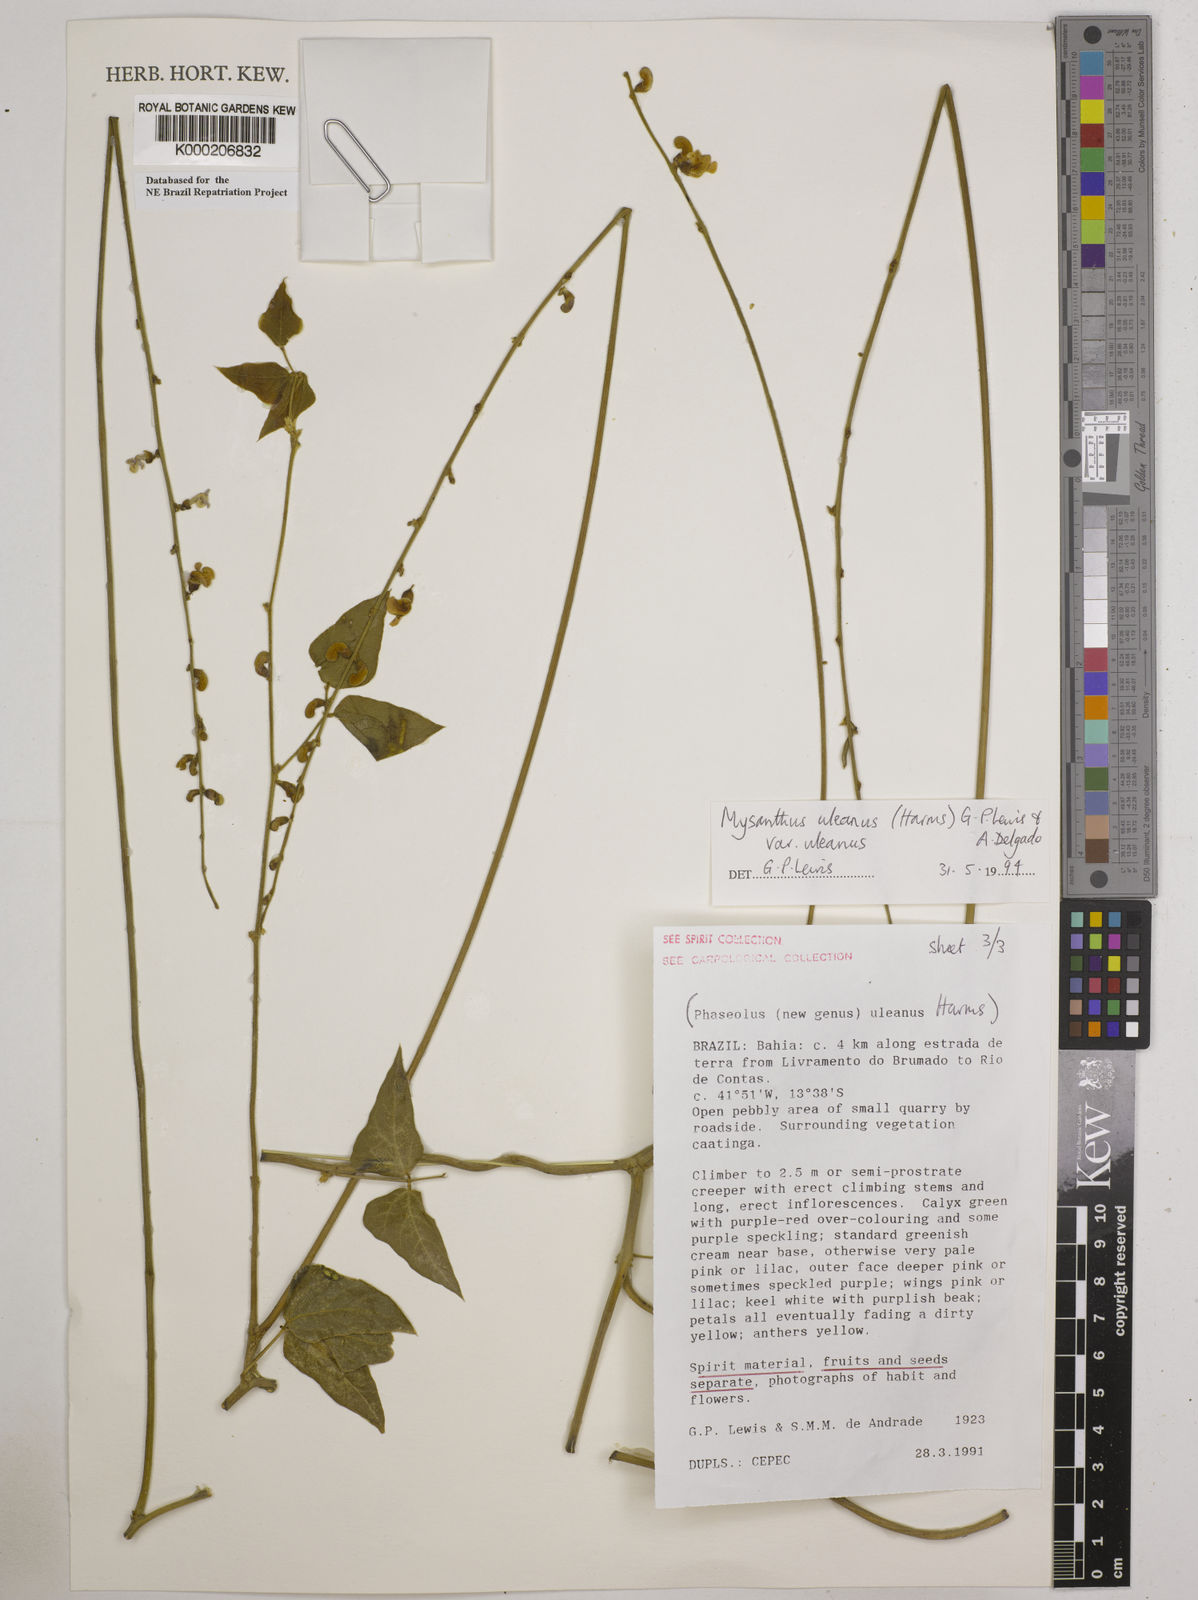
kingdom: Plantae
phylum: Tracheophyta
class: Magnoliopsida
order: Fabales
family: Fabaceae
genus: Mysanthus
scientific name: Mysanthus uleanus
